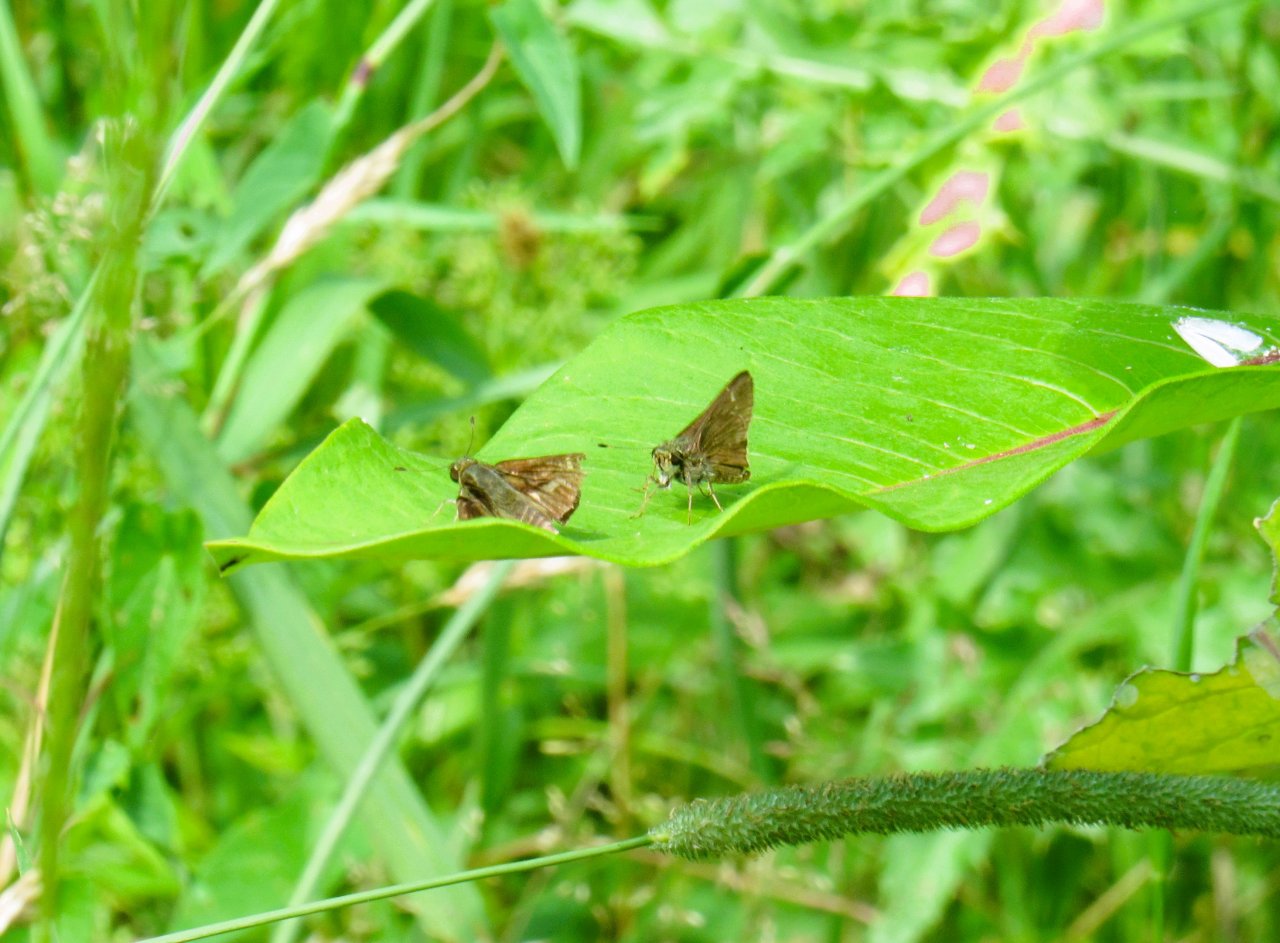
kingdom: Animalia
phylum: Arthropoda
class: Insecta
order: Lepidoptera
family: Hesperiidae
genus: Vernia
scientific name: Vernia verna
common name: Little Glassywing
